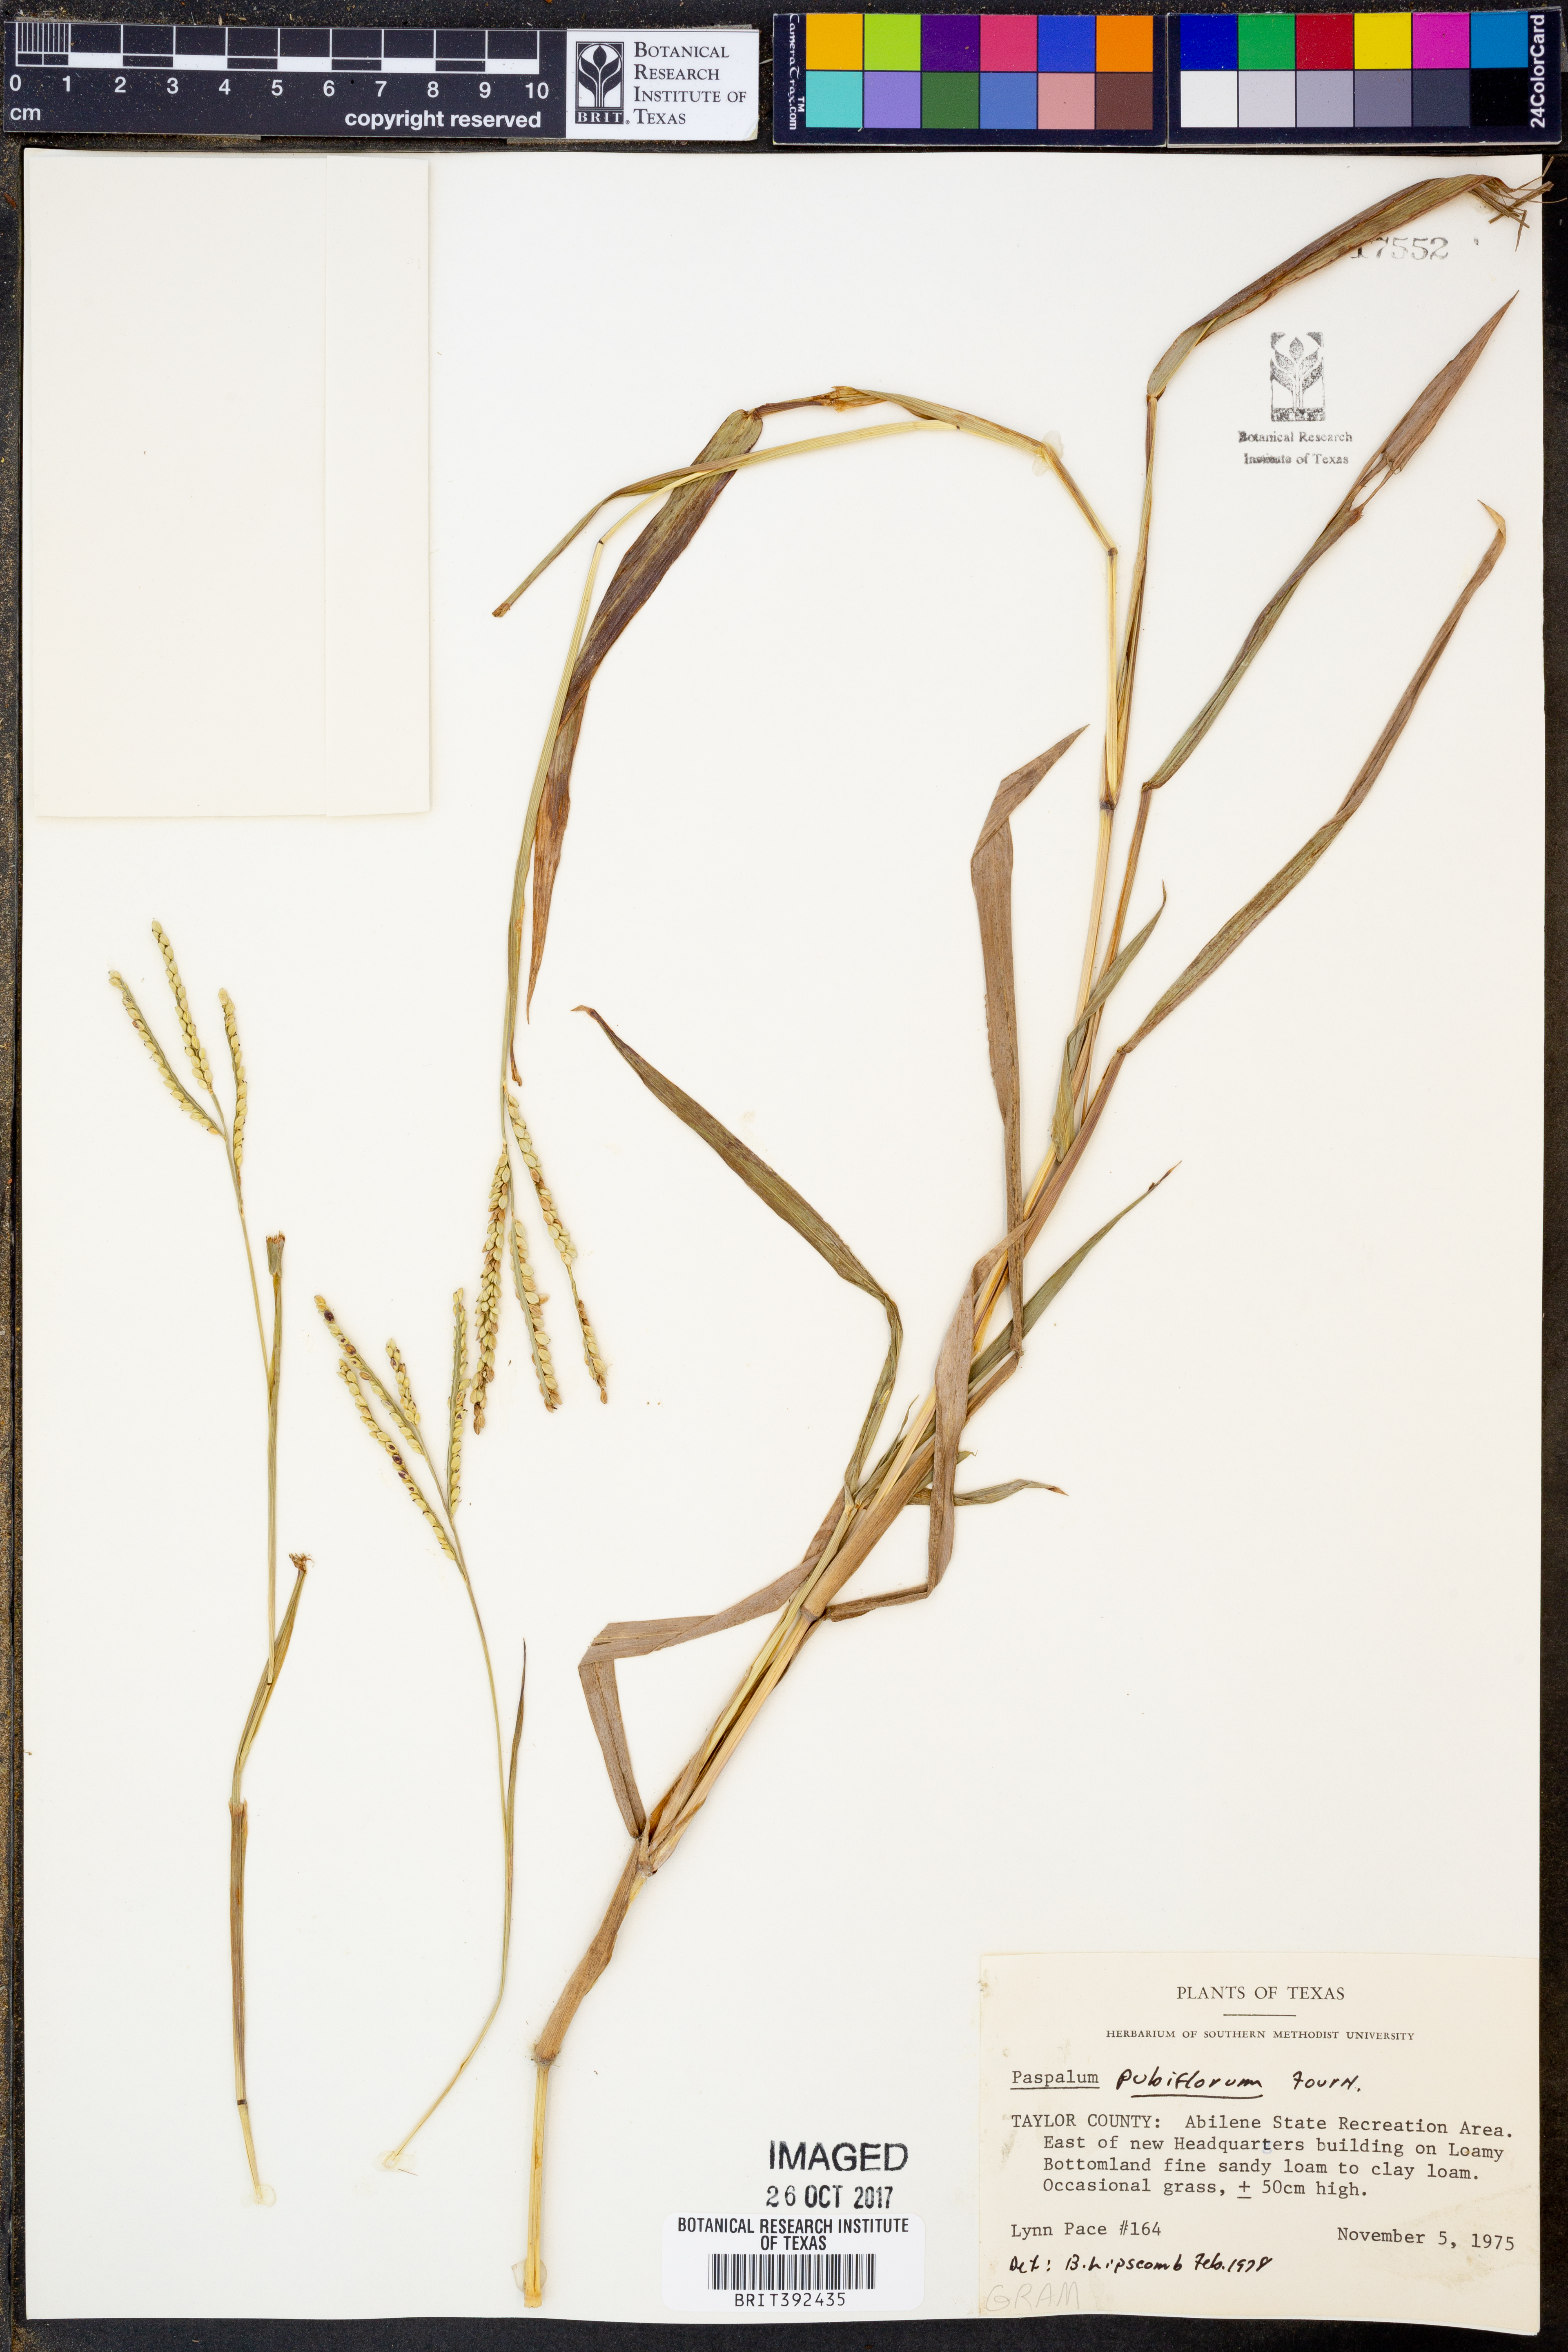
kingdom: Plantae
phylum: Tracheophyta
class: Liliopsida
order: Poales
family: Poaceae
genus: Paspalum
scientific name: Paspalum pubiflorum
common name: Hairy-seed paspalum
